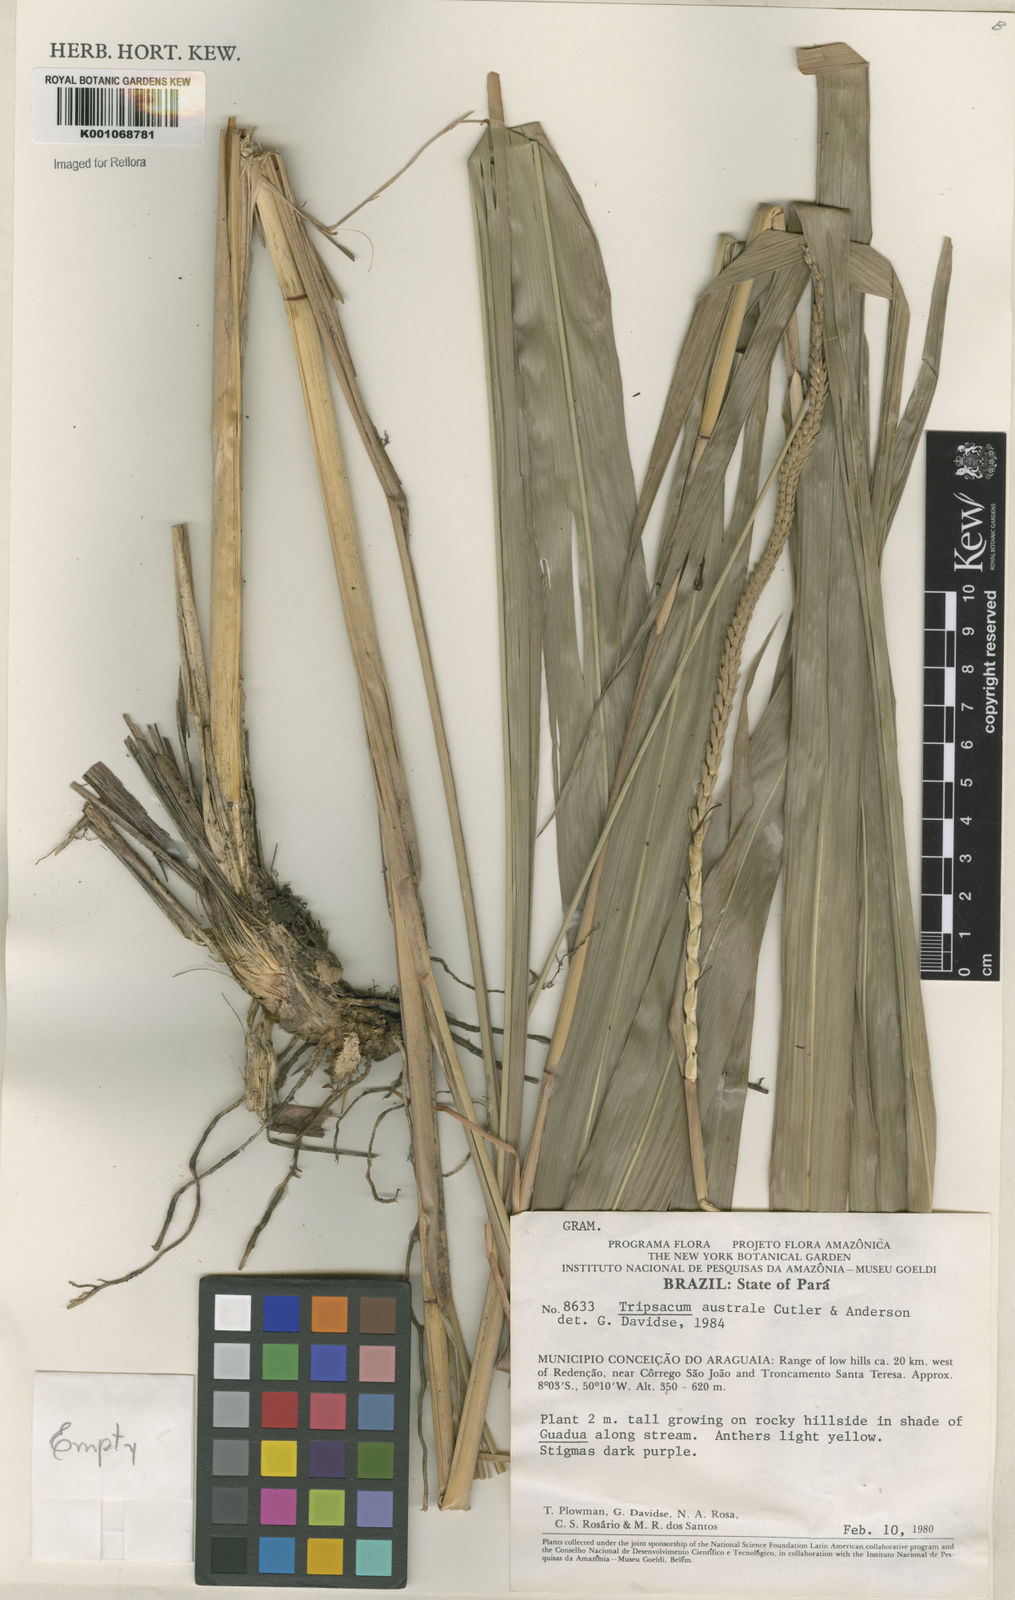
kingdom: Plantae
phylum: Tracheophyta
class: Liliopsida
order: Poales
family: Poaceae
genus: Tripsacum
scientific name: Tripsacum australe
